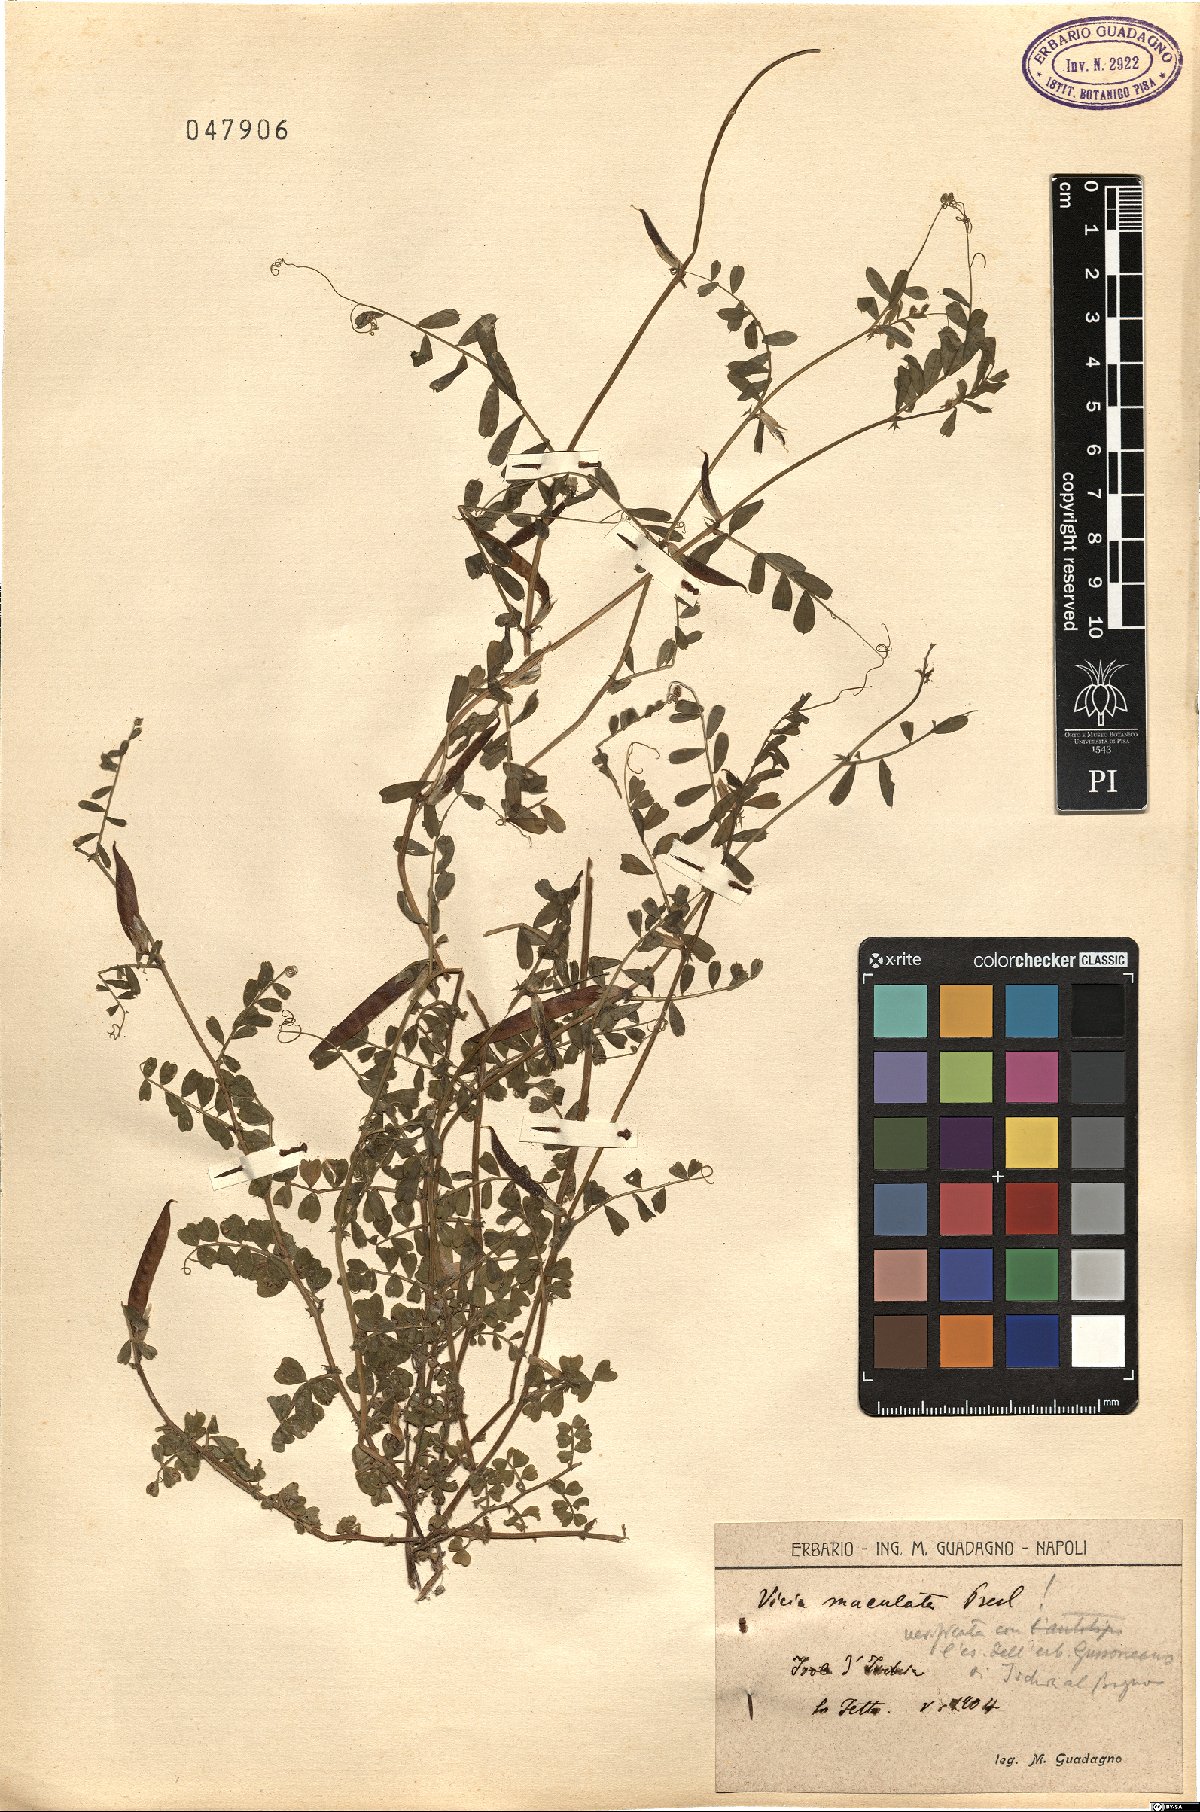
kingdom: Plantae
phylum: Tracheophyta
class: Magnoliopsida
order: Fabales
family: Fabaceae
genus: Vicia
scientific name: Vicia sativa
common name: Garden vetch
